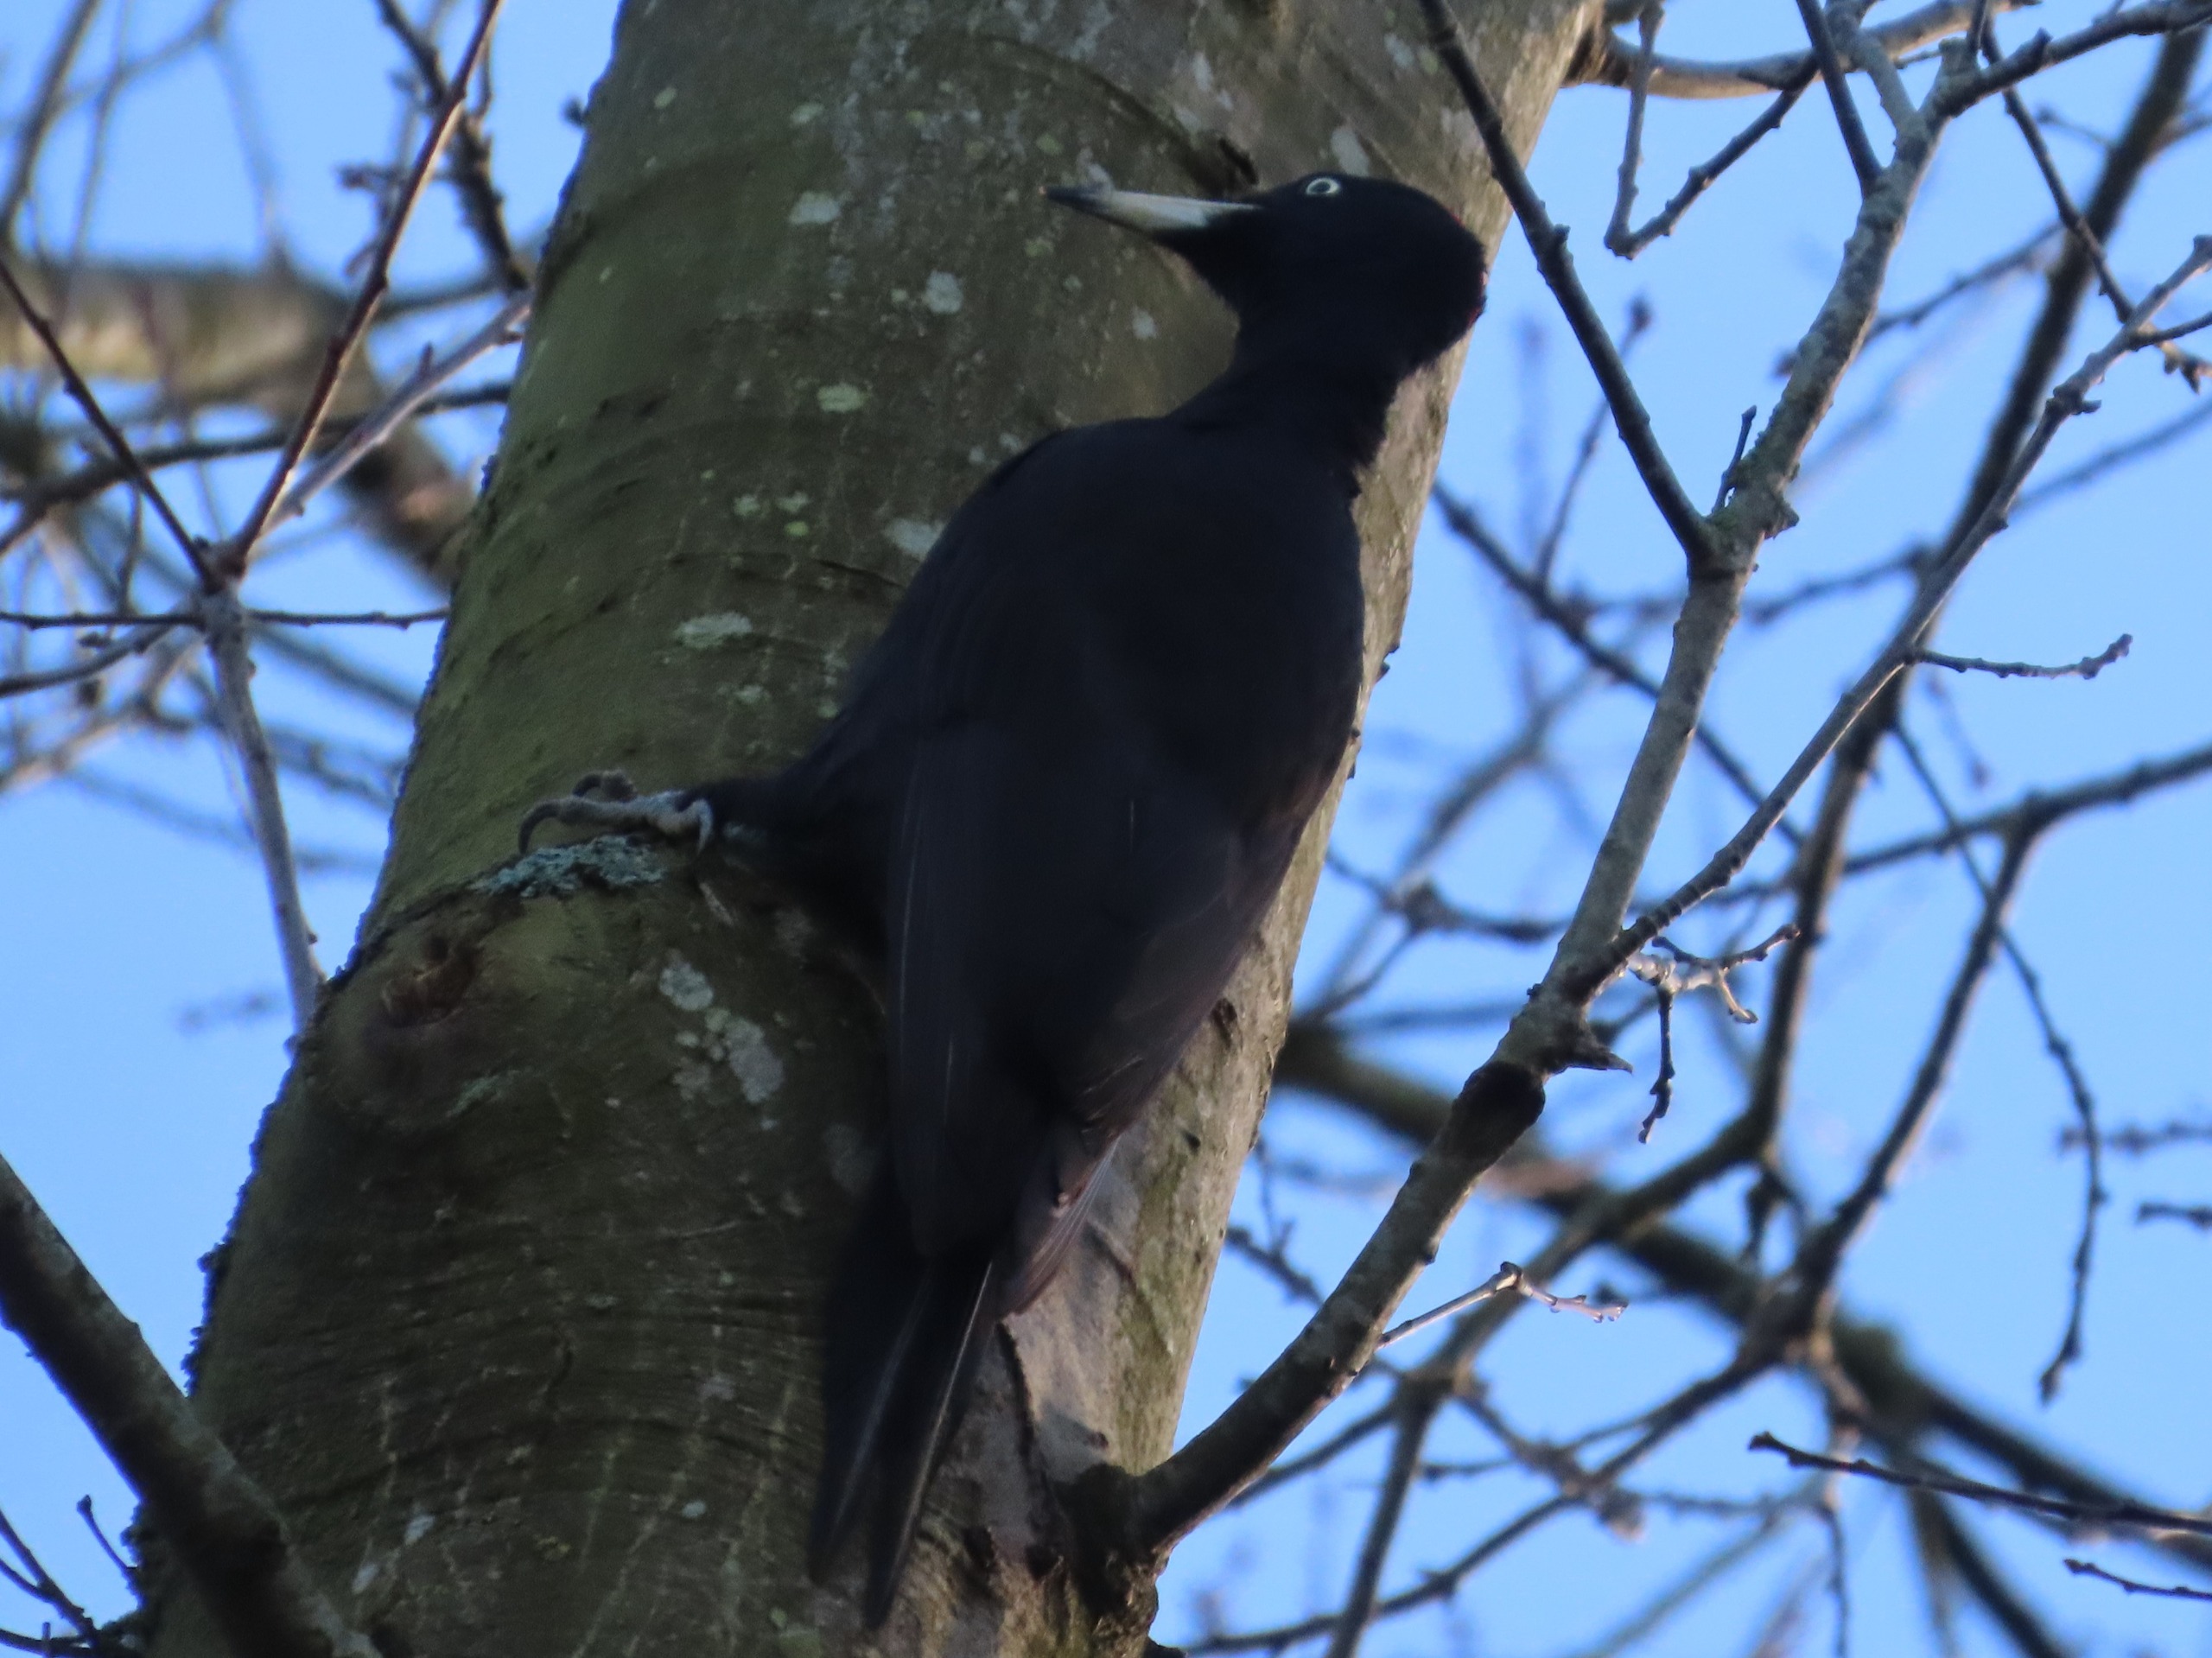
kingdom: Animalia
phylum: Chordata
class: Aves
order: Piciformes
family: Picidae
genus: Dryocopus
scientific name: Dryocopus martius
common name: Sortspætte
